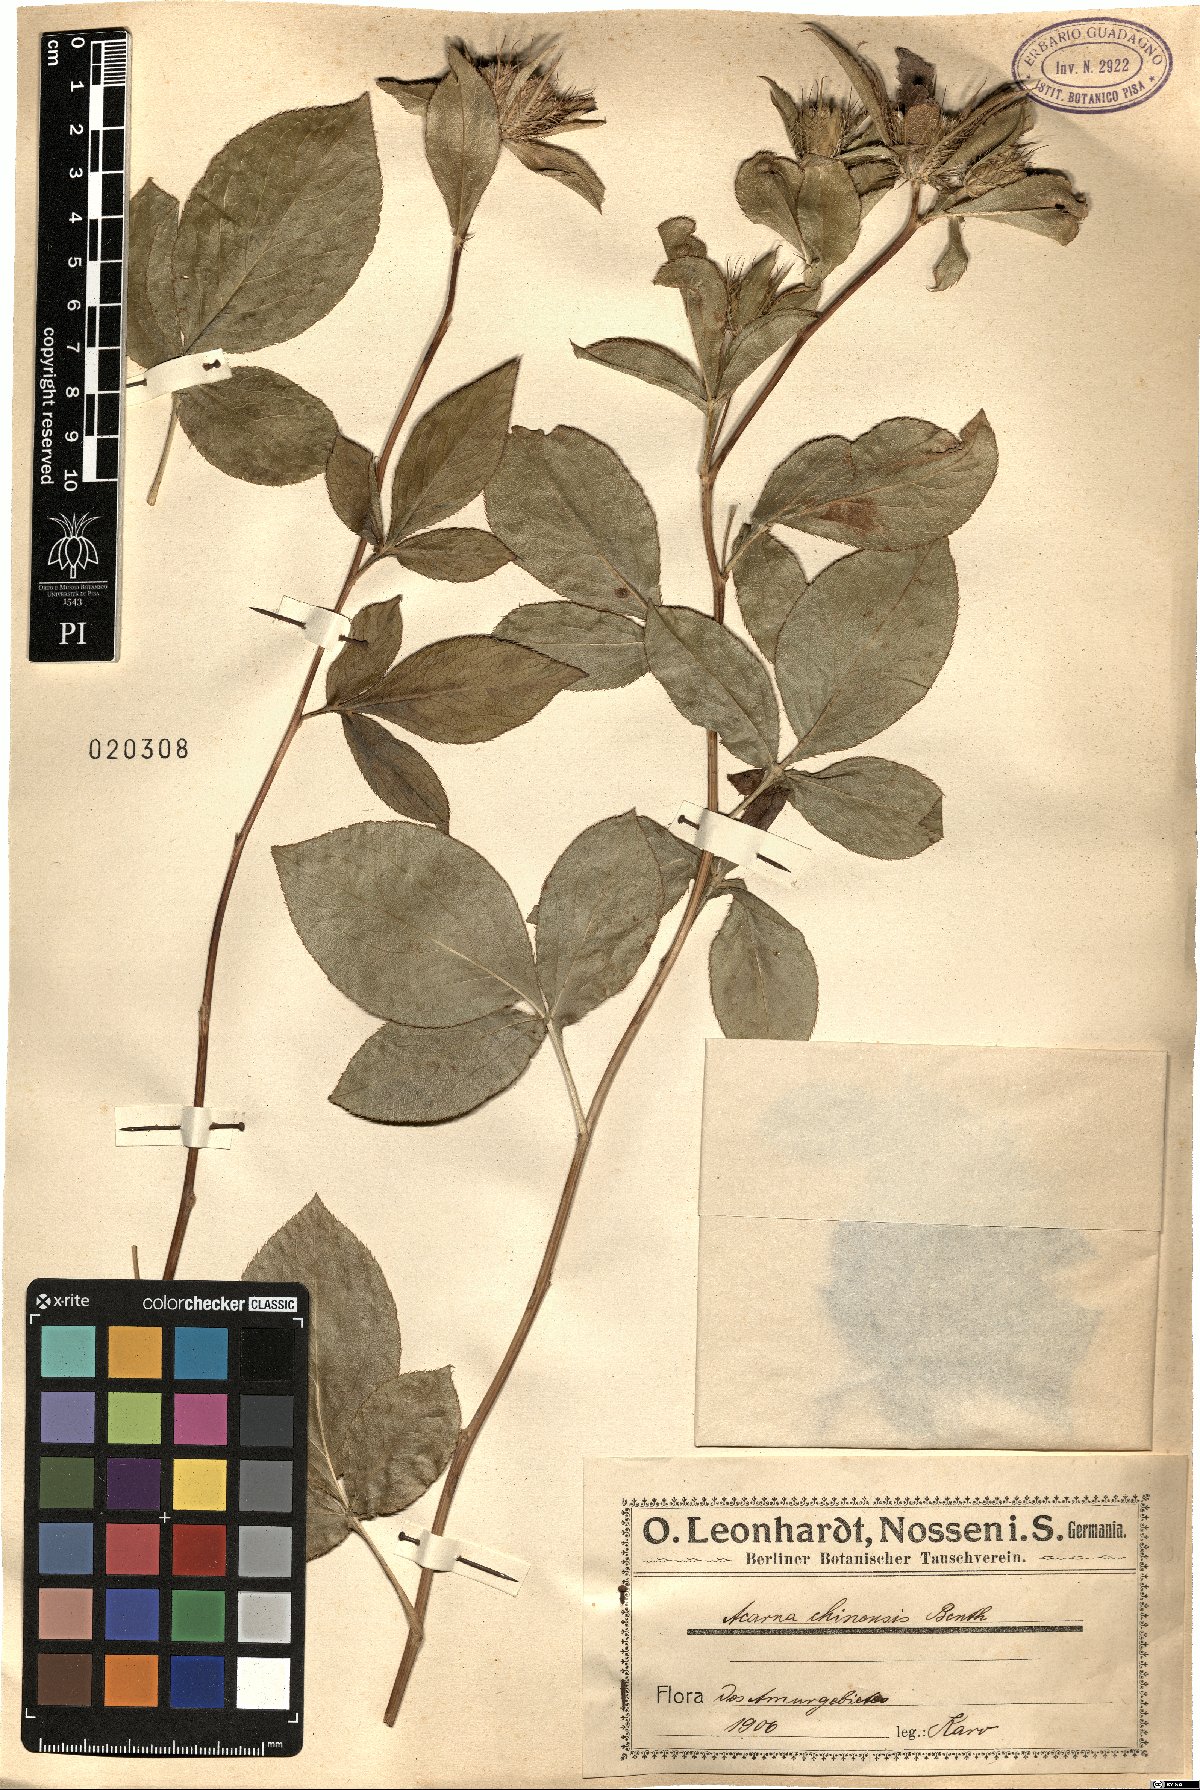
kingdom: Plantae
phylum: Tracheophyta
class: Magnoliopsida
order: Asterales
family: Asteraceae
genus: Atractylodes
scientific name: Atractylodes lancea
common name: Southern tsangshu
